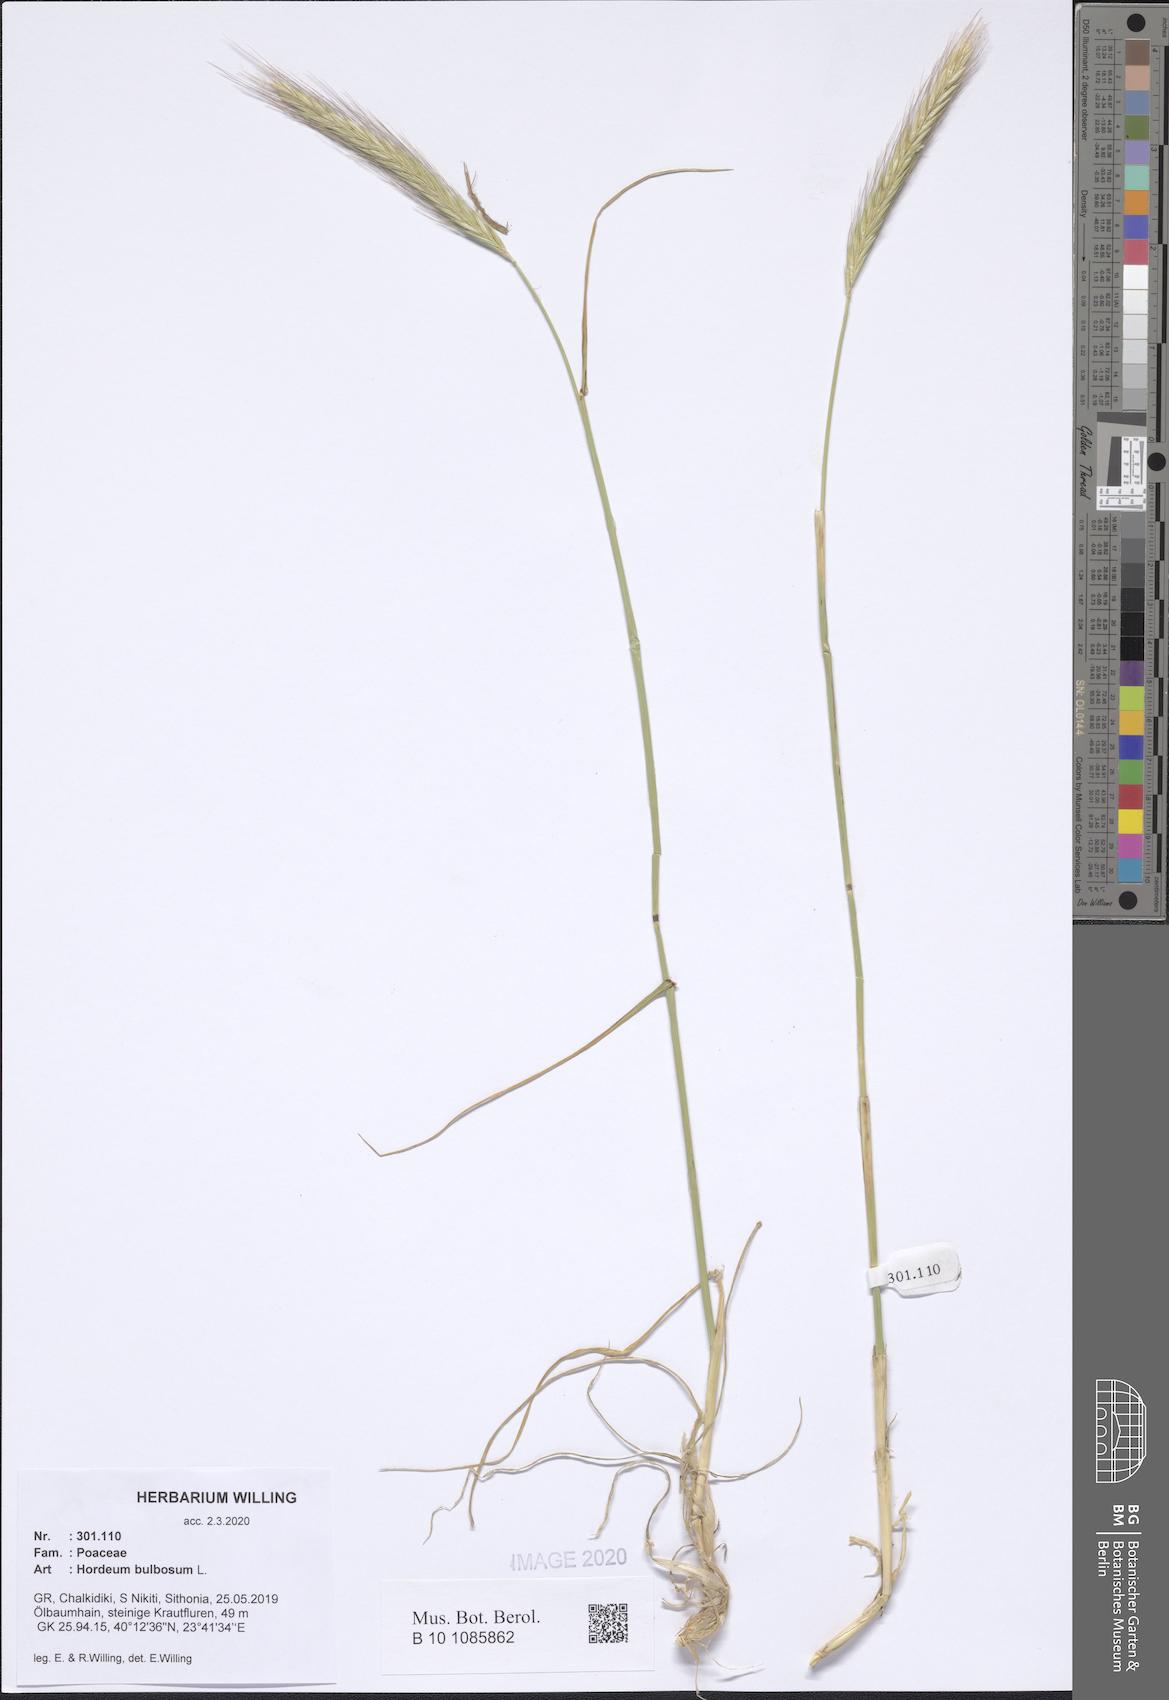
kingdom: Plantae
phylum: Tracheophyta
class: Liliopsida
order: Poales
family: Poaceae
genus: Hordeum
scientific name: Hordeum bulbosum
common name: Bulbous barley
